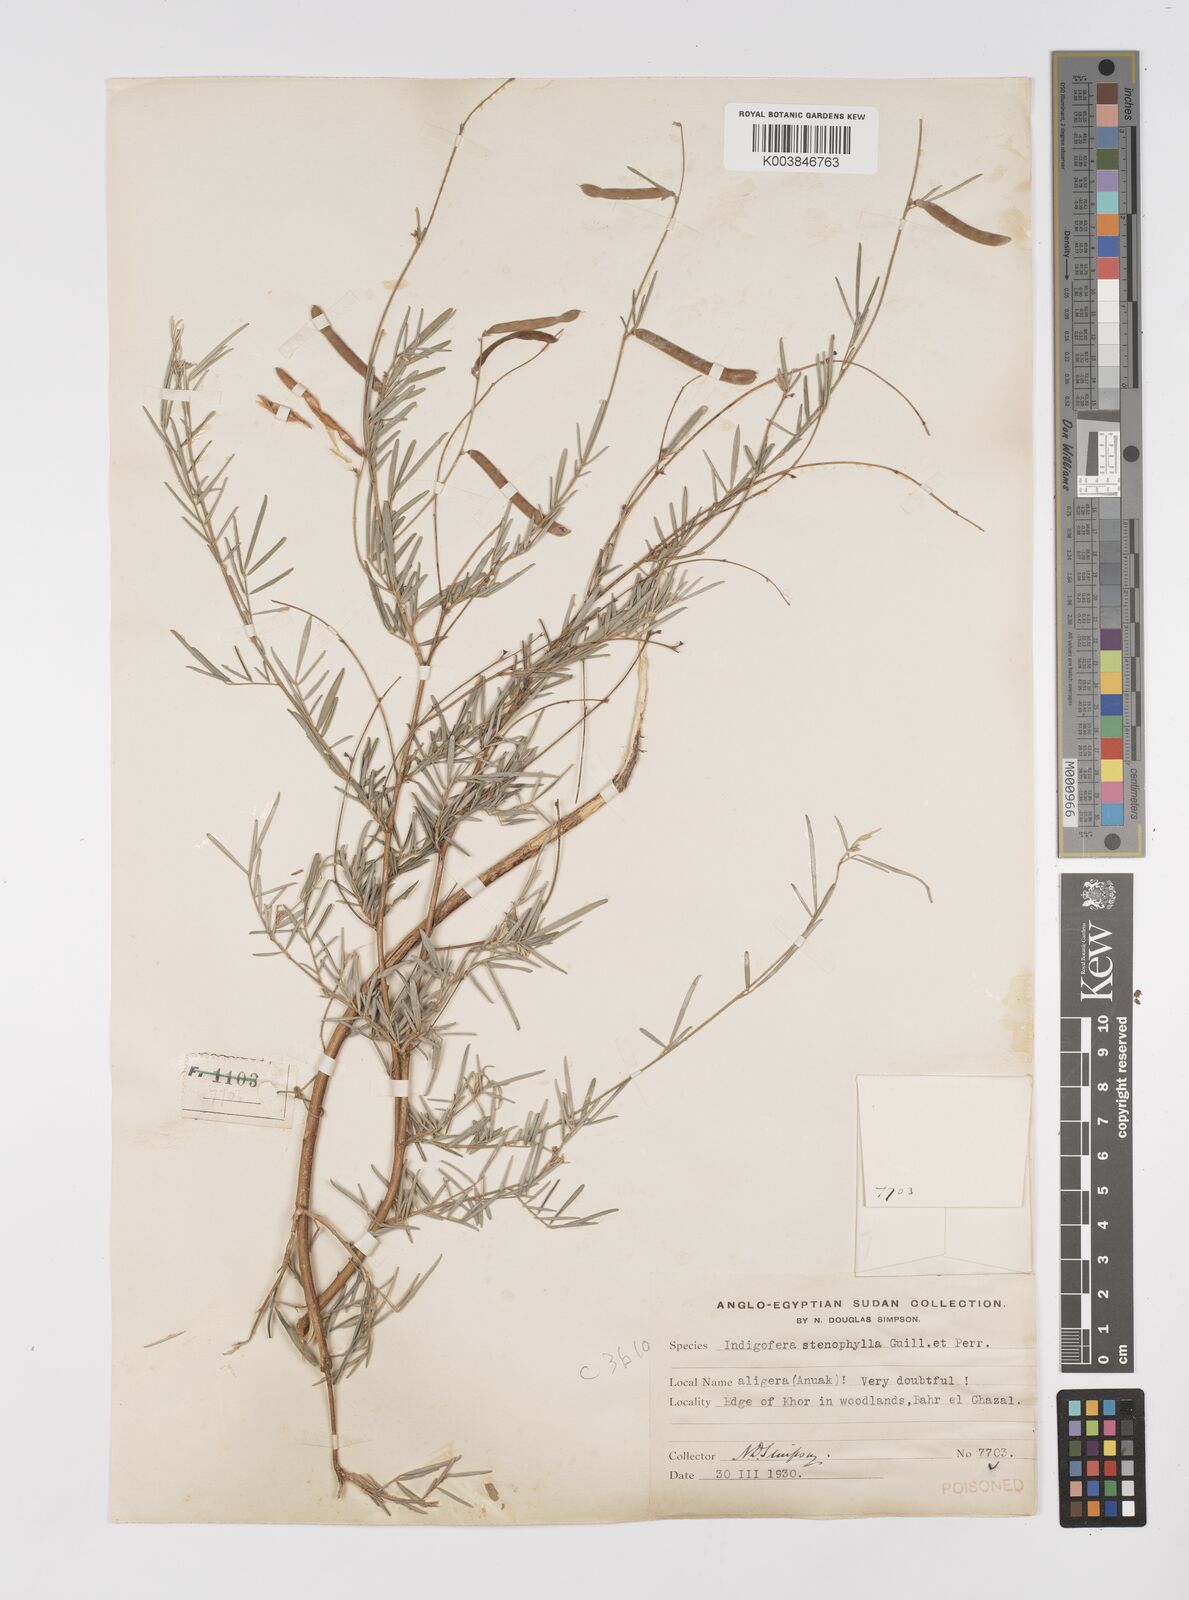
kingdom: Plantae
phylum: Tracheophyta
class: Magnoliopsida
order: Fabales
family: Fabaceae
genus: Tephrosia
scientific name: Tephrosia linearis
